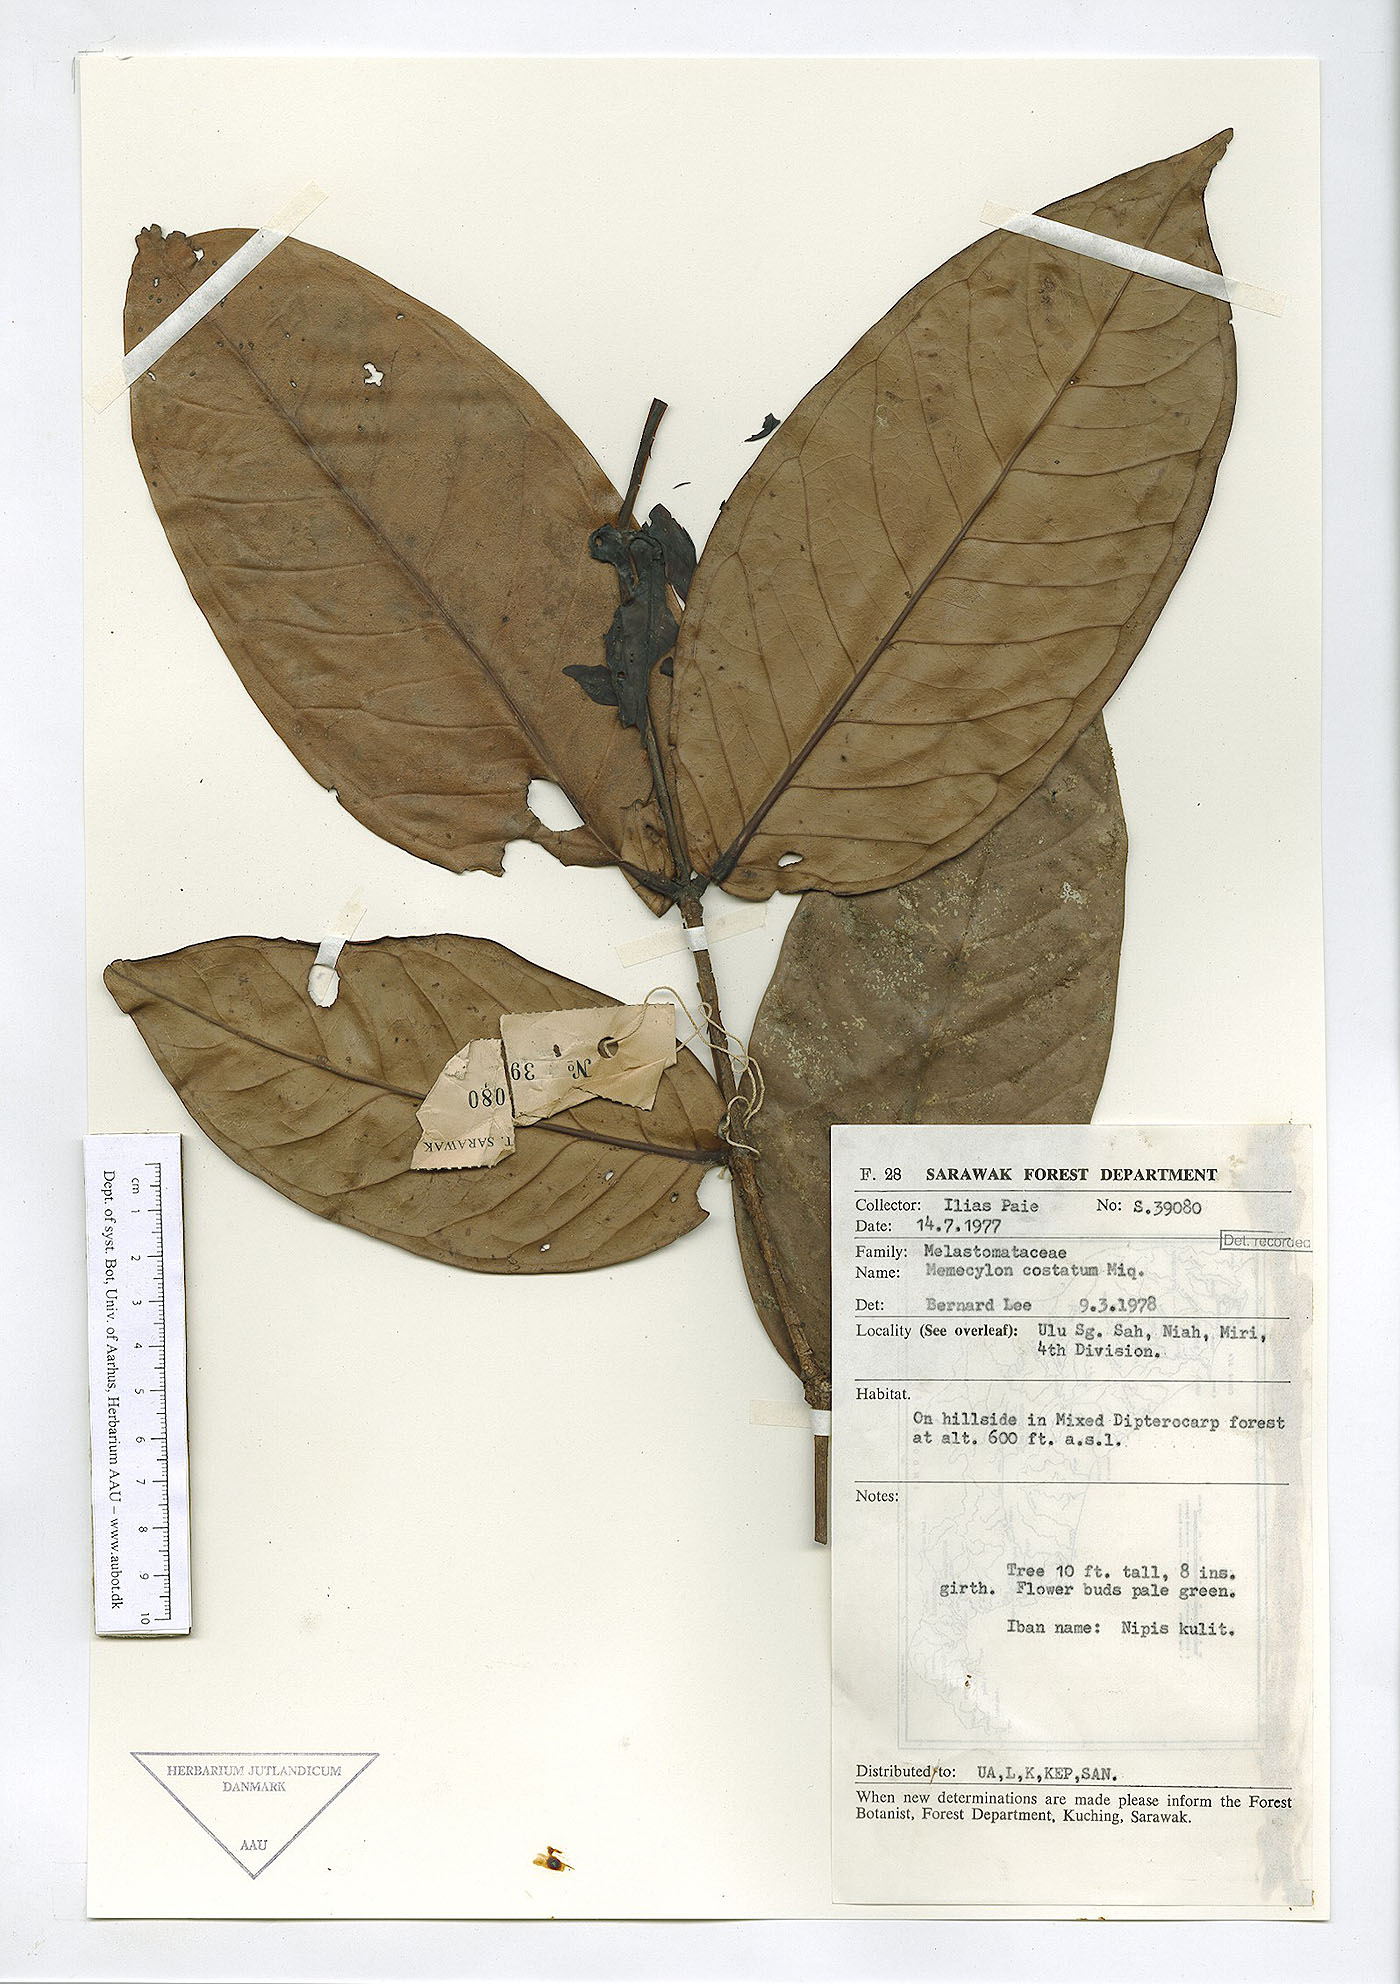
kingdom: Plantae
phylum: Tracheophyta
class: Magnoliopsida
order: Myrtales
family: Melastomataceae
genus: Memecylon
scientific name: Memecylon paniculatum
